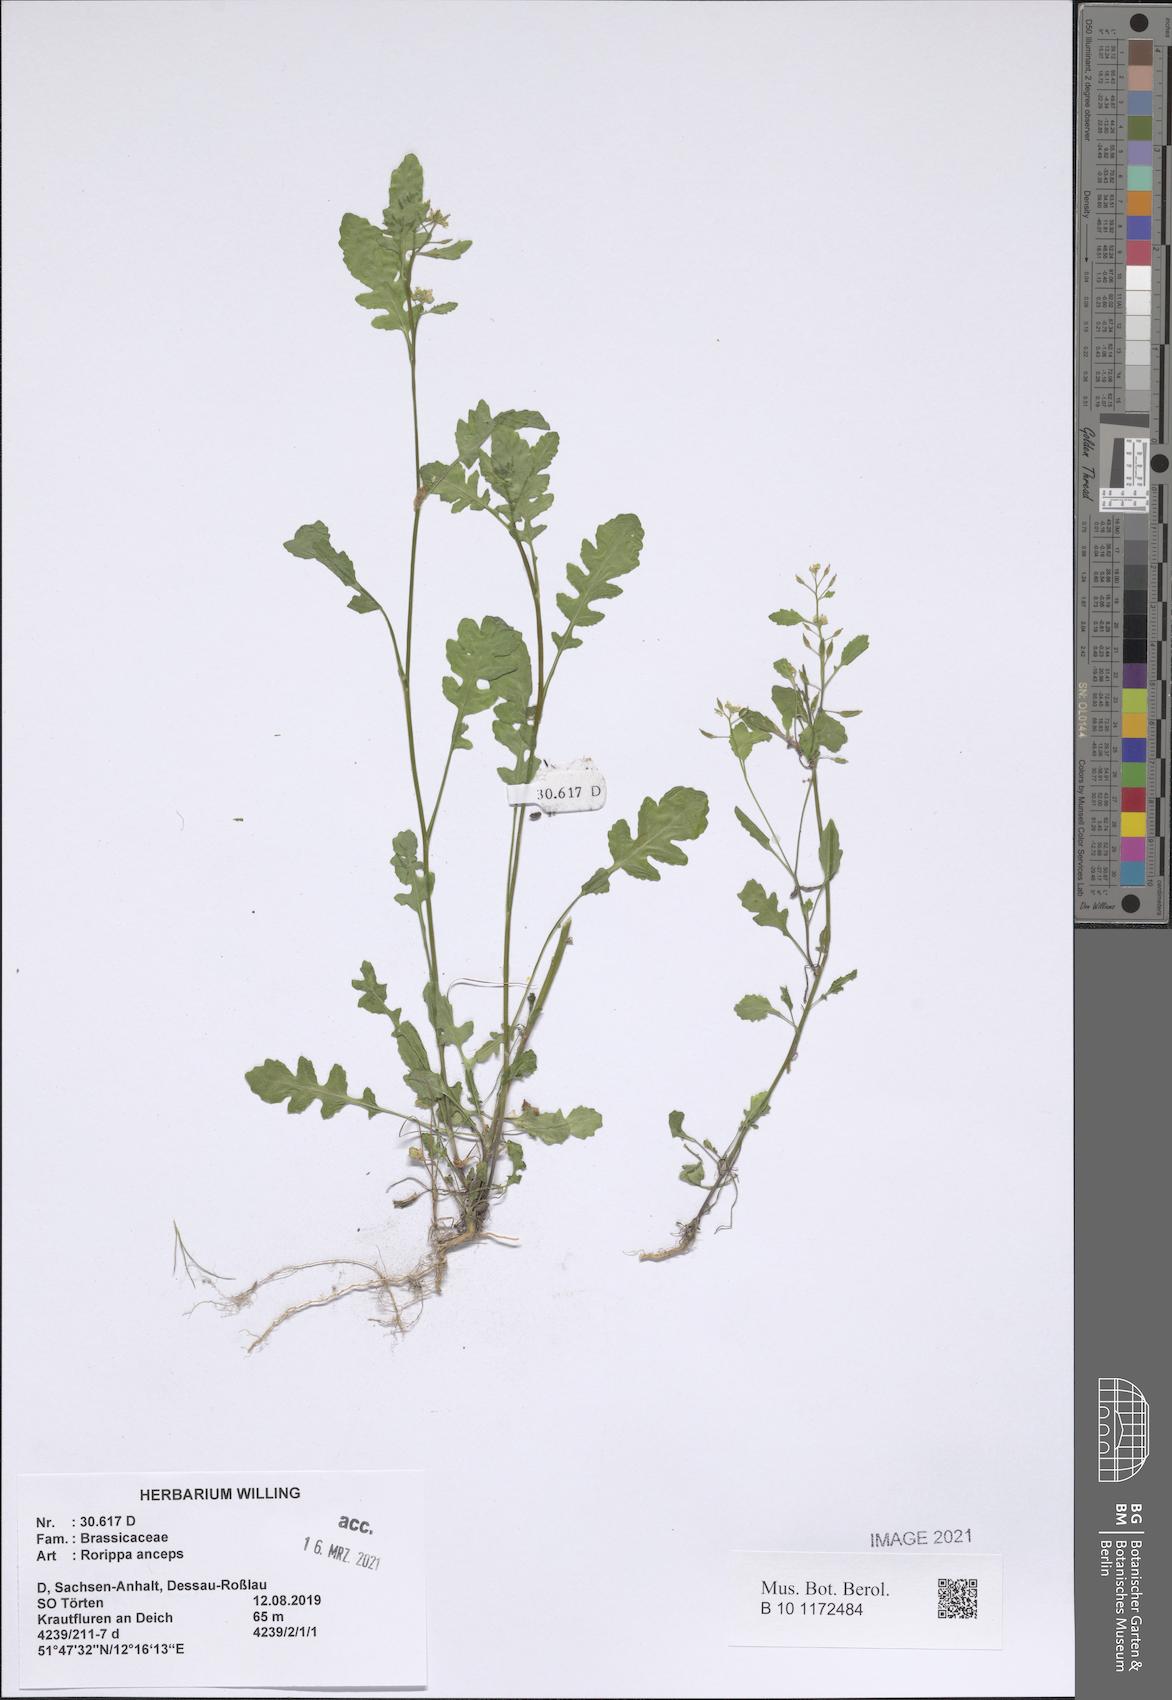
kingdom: Plantae
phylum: Tracheophyta
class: Magnoliopsida
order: Brassicales
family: Brassicaceae
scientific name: Brassicaceae
